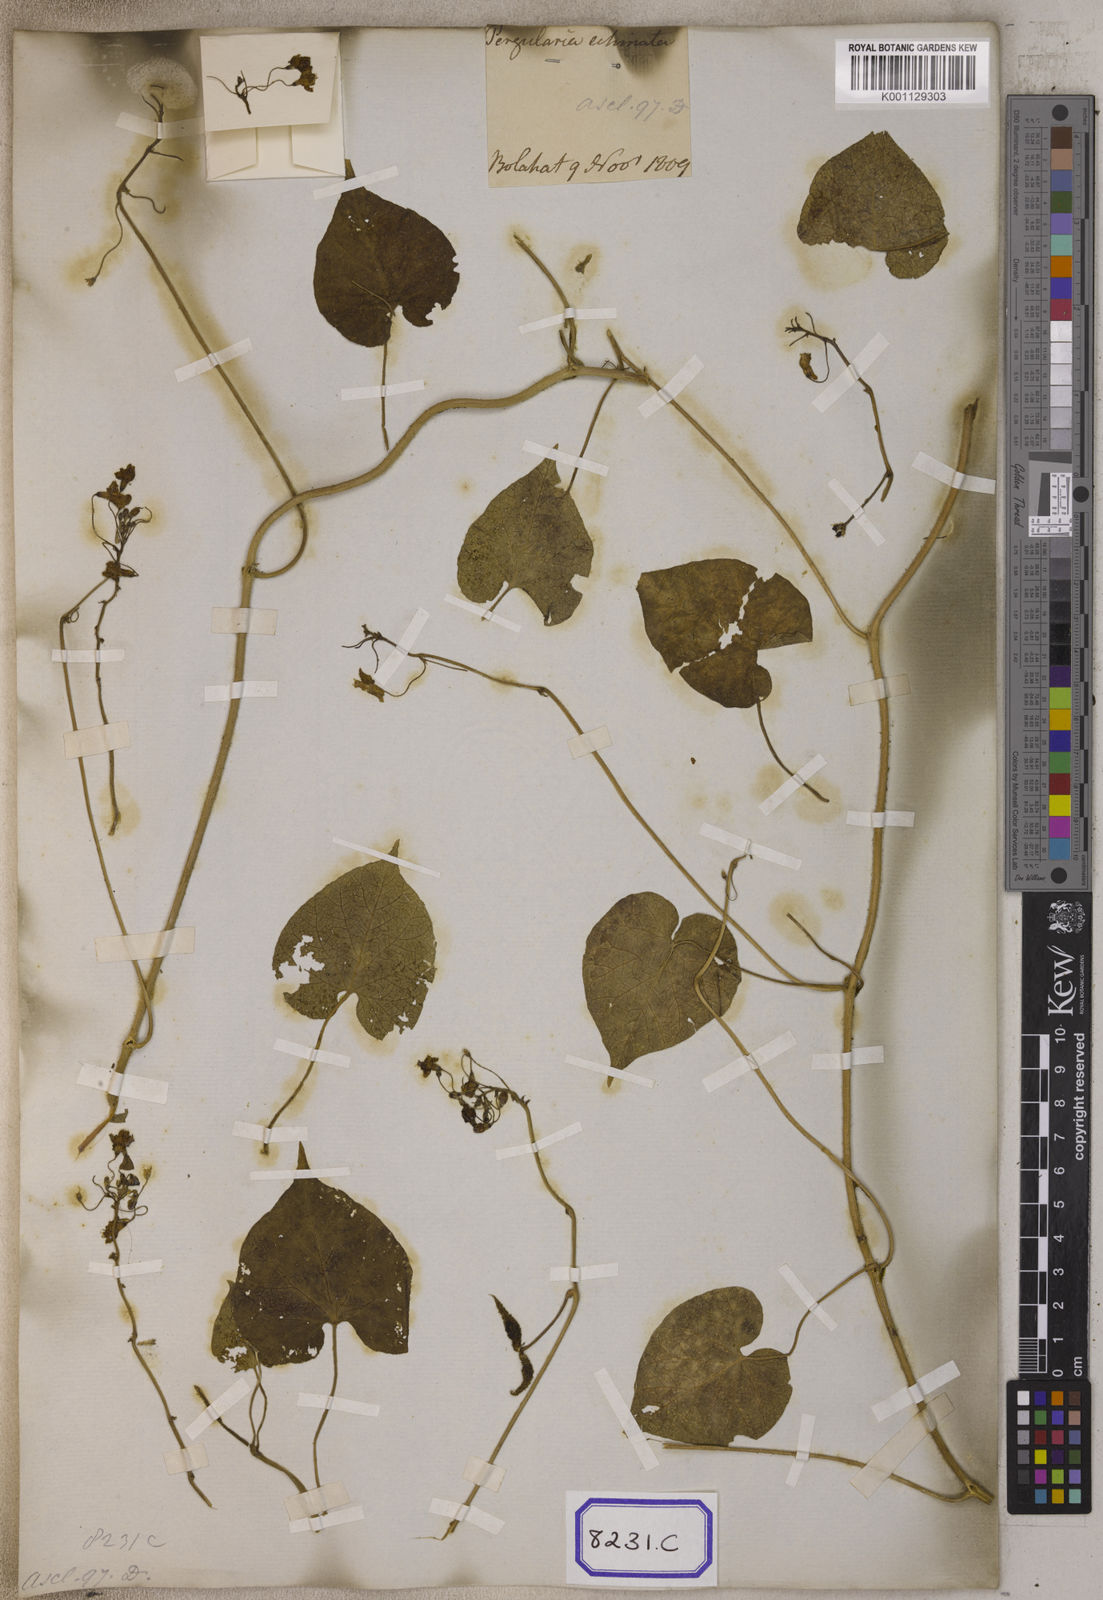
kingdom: Plantae
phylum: Tracheophyta
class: Magnoliopsida
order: Gentianales
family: Apocynaceae
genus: Pergularia
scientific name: Pergularia
